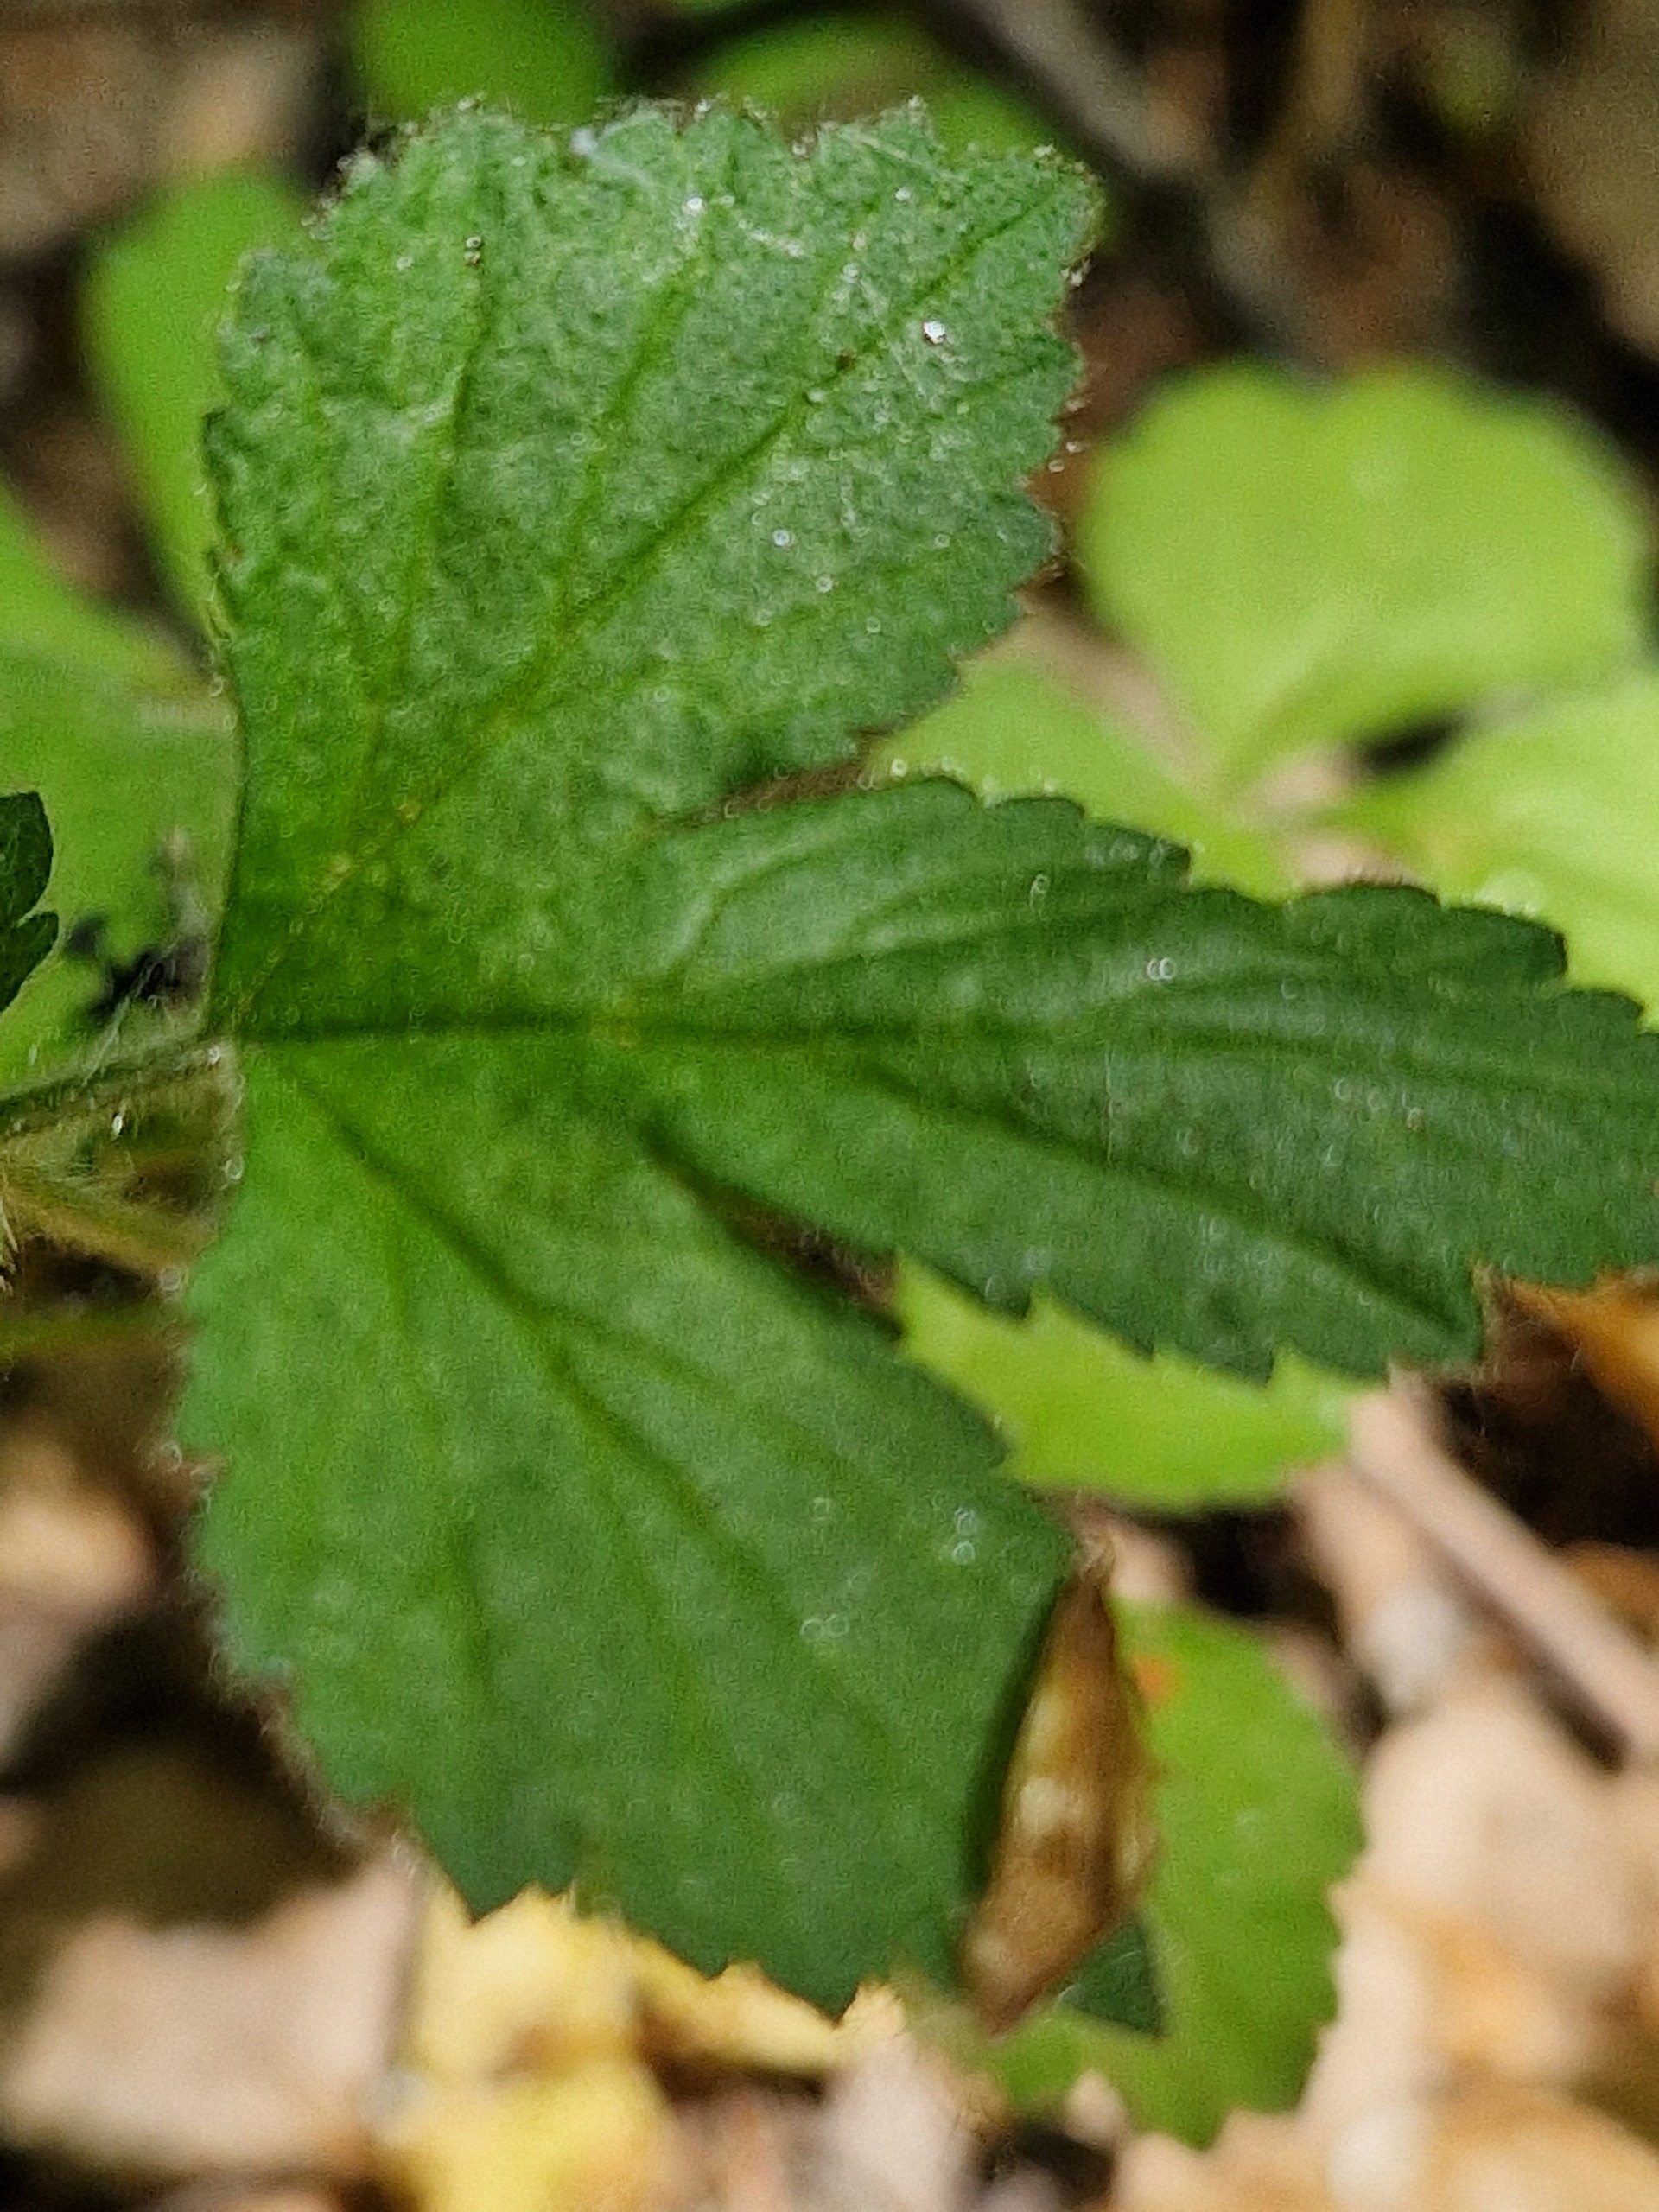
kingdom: Plantae
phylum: Tracheophyta
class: Magnoliopsida
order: Rosales
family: Rosaceae
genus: Geum
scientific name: Geum urbanum
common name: Feber-nellikerod
